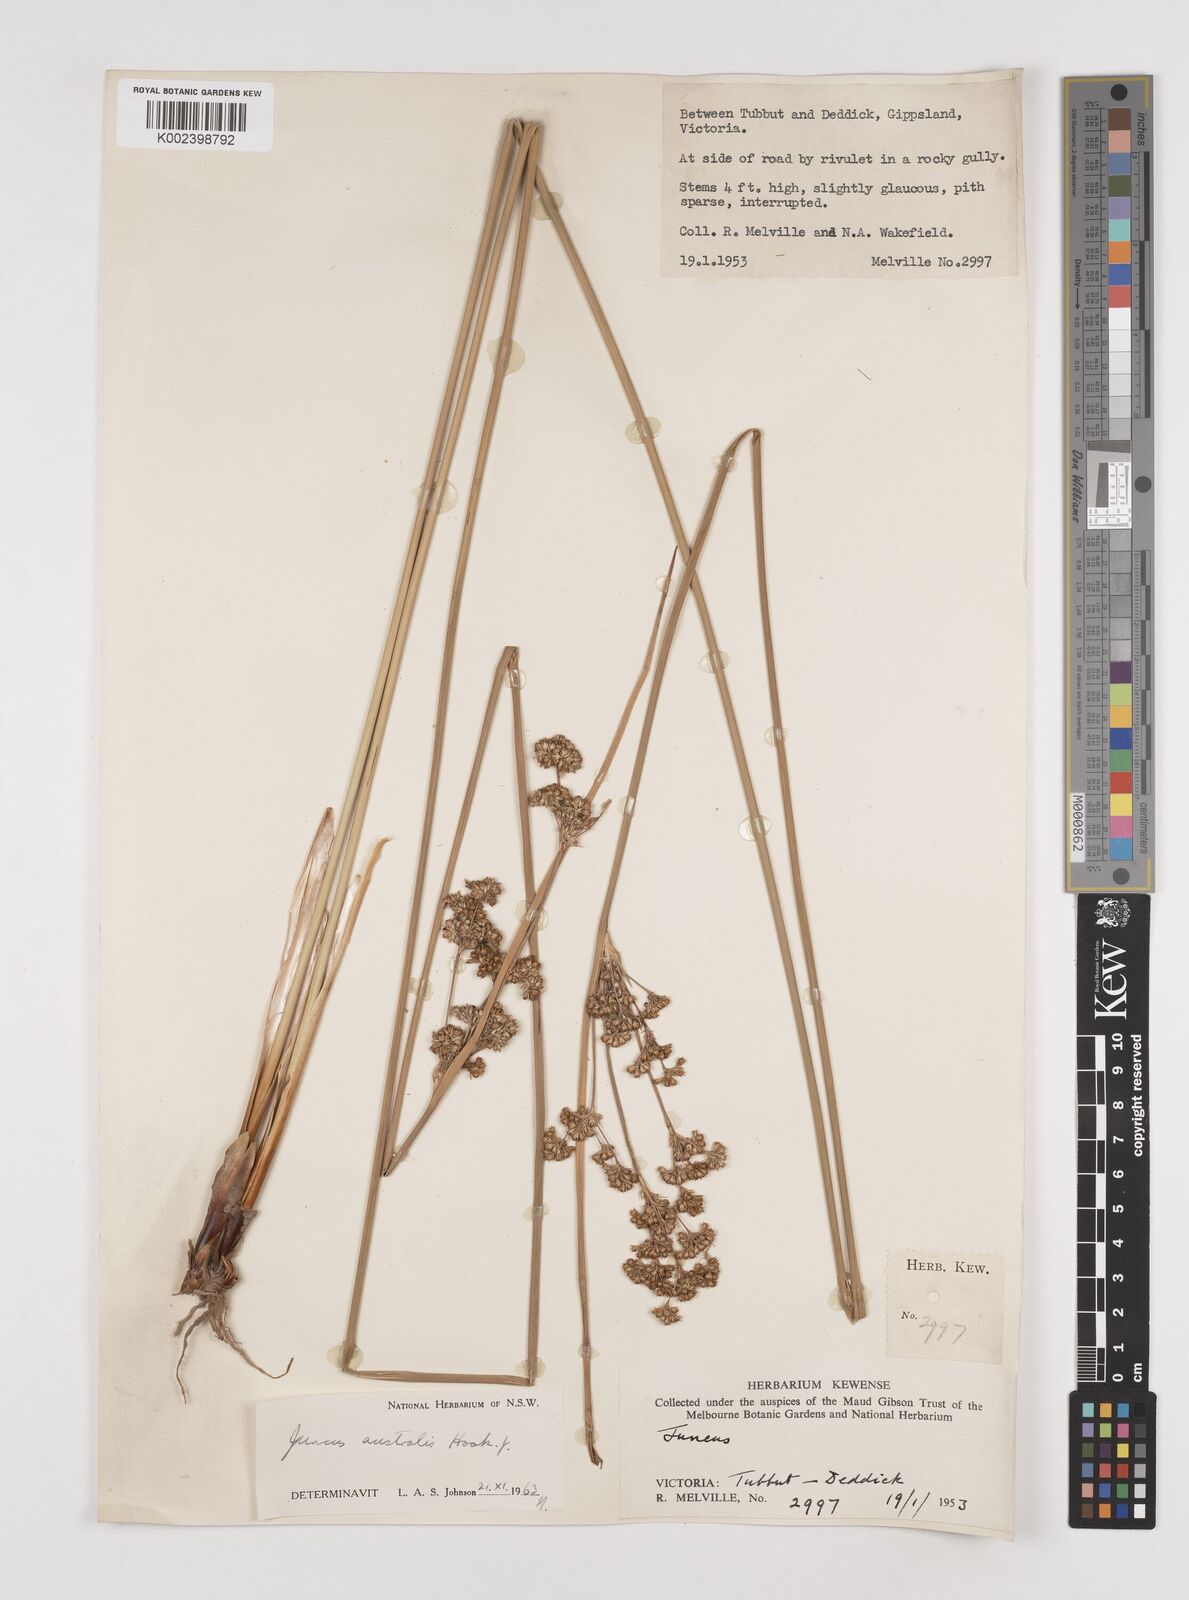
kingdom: Plantae
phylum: Tracheophyta
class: Liliopsida
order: Poales
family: Juncaceae
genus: Juncus
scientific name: Juncus australis
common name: Austral rush
